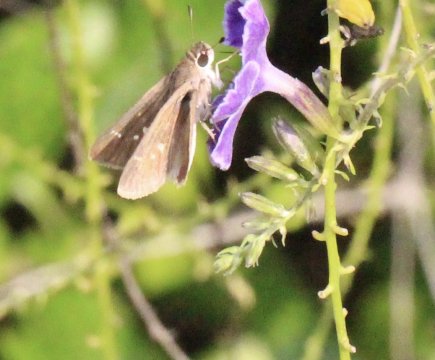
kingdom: Animalia
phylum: Arthropoda
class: Insecta
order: Lepidoptera
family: Hesperiidae
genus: Lerodea
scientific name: Lerodea eufala
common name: Eufala Skipper
